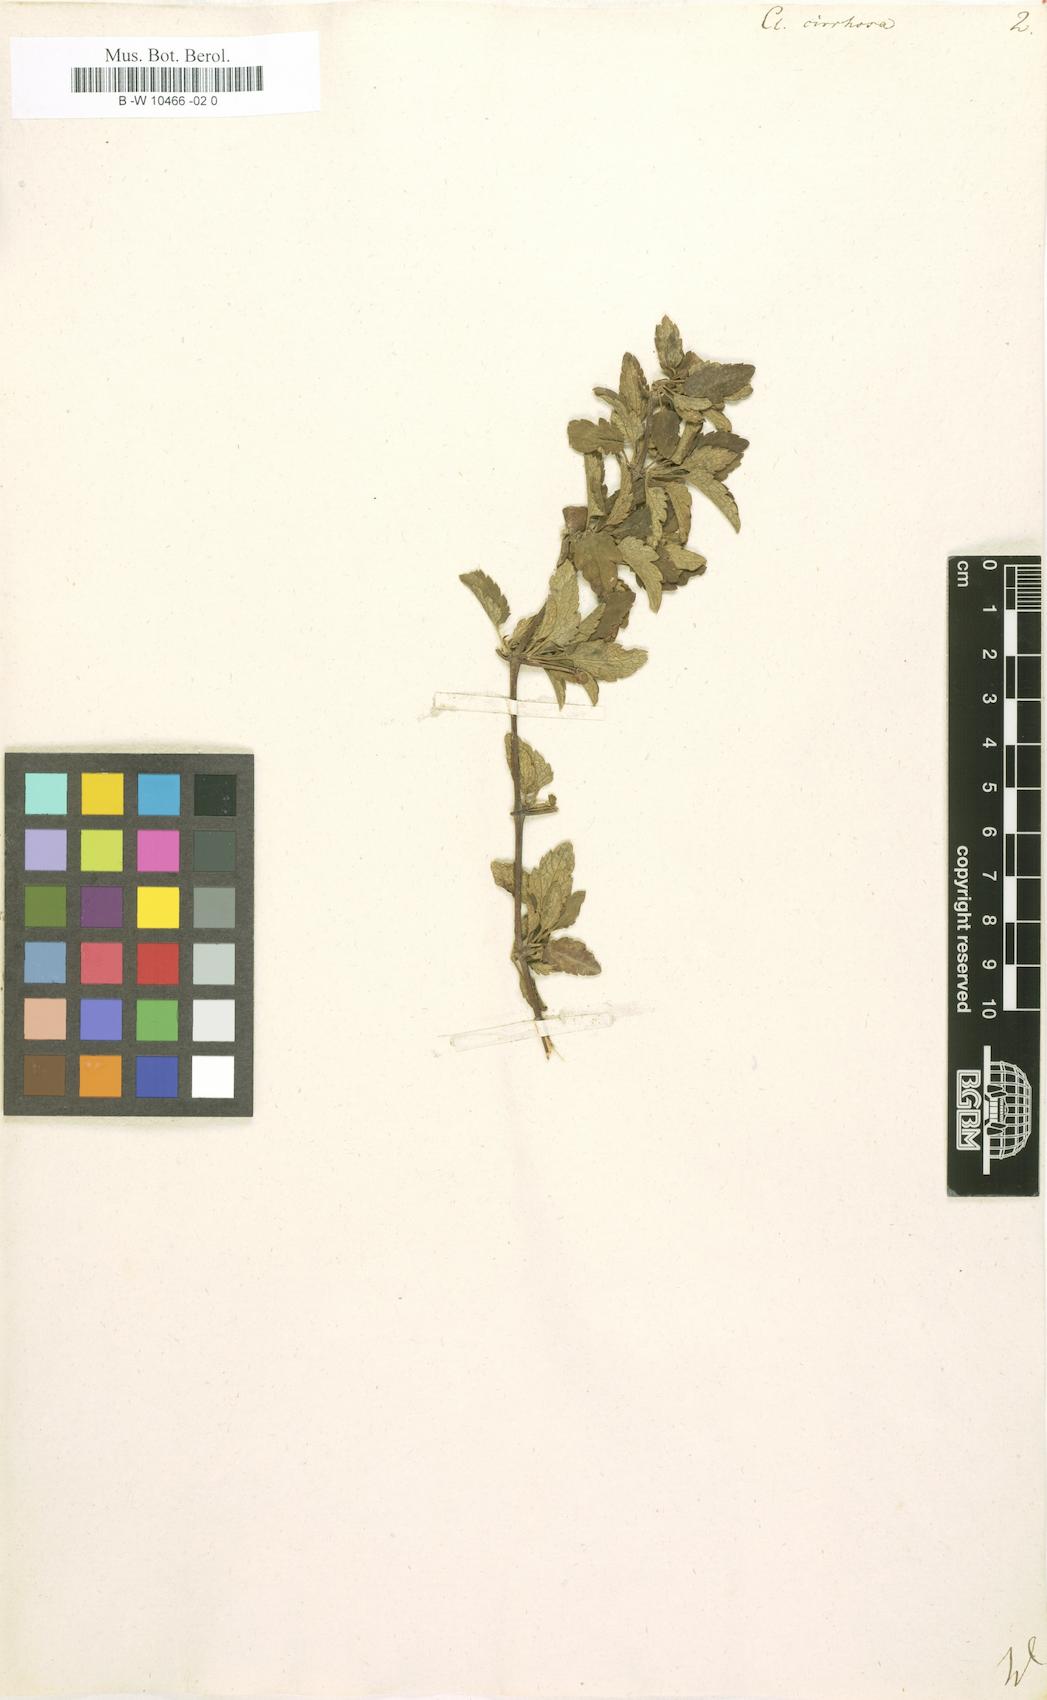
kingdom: Plantae
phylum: Tracheophyta
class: Magnoliopsida
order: Ranunculales
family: Ranunculaceae
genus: Clematis
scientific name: Clematis cirrhosa
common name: Early virgin's-bower
